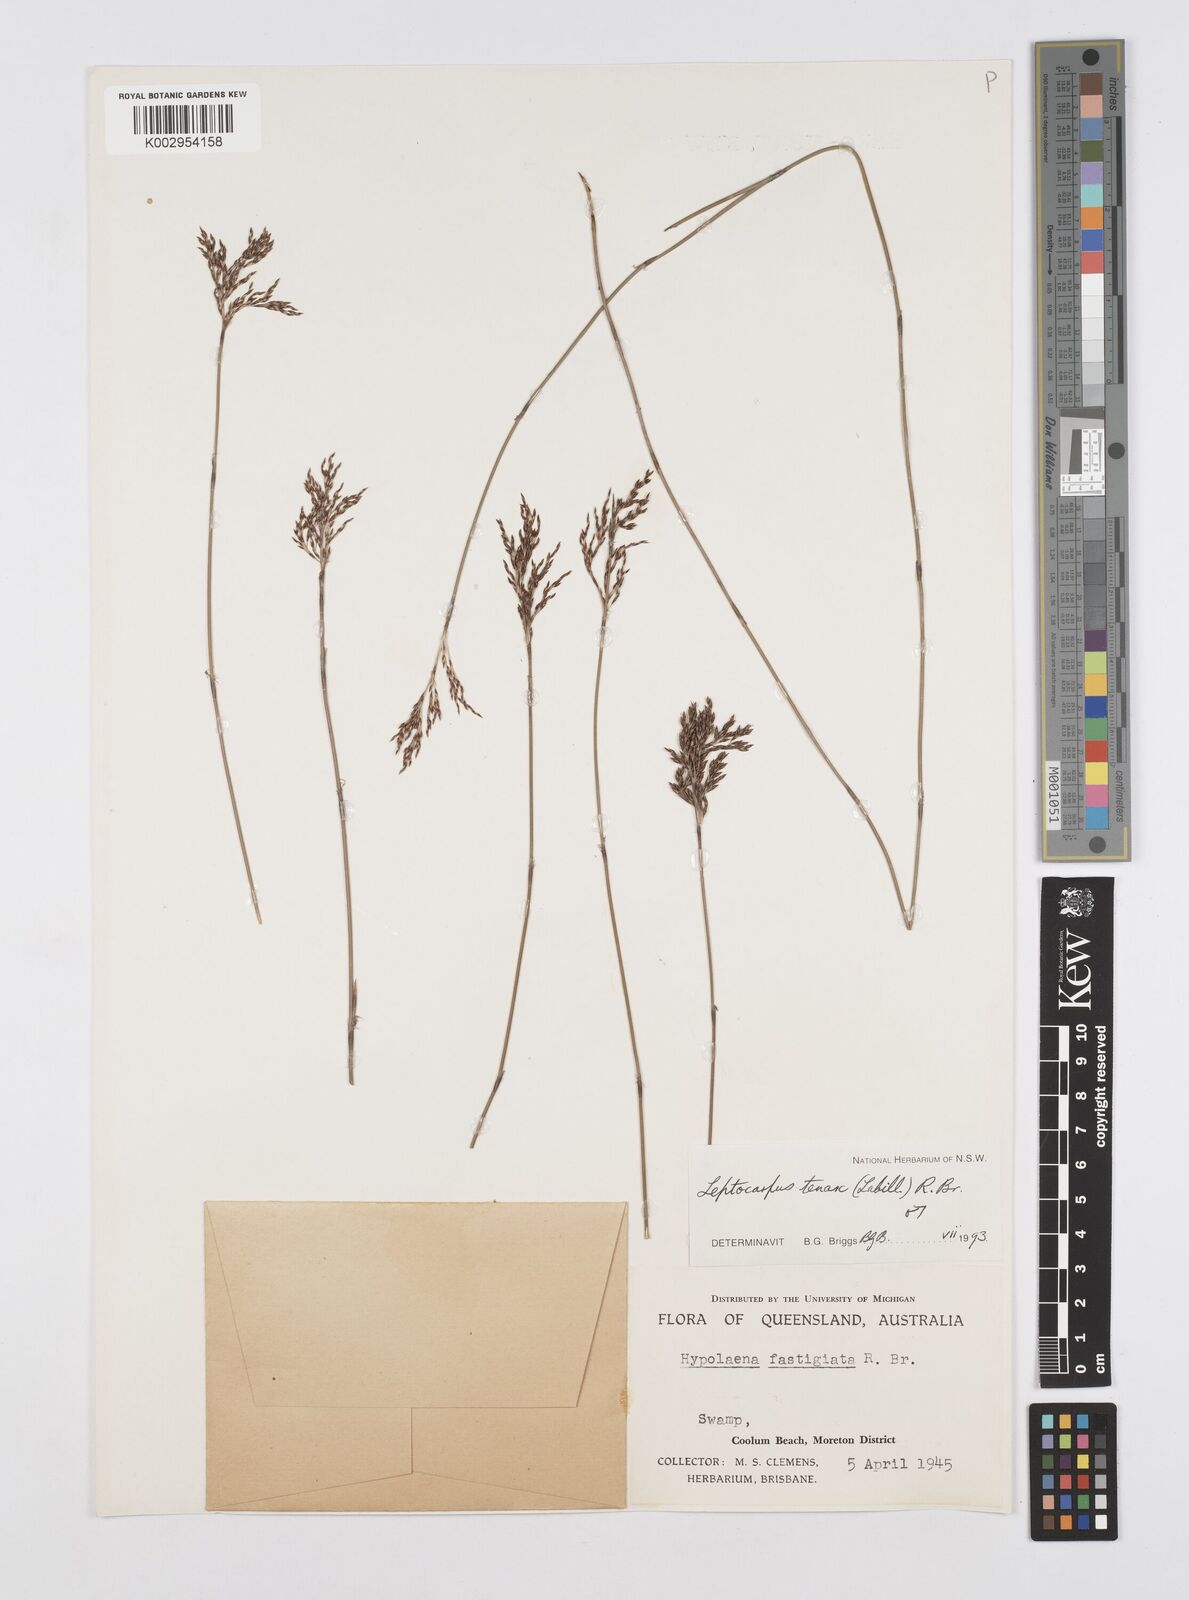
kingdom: Plantae
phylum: Tracheophyta
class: Liliopsida
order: Poales
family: Restionaceae
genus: Leptocarpus
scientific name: Leptocarpus tenax
